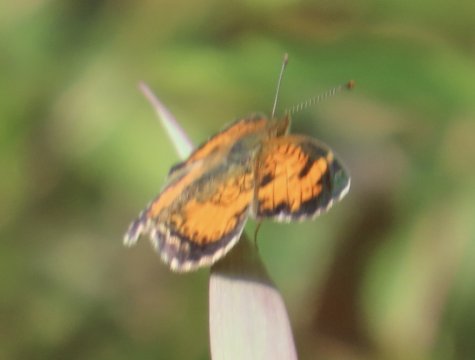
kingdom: Animalia
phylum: Arthropoda
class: Insecta
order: Lepidoptera
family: Nymphalidae
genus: Phyciodes
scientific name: Phyciodes
